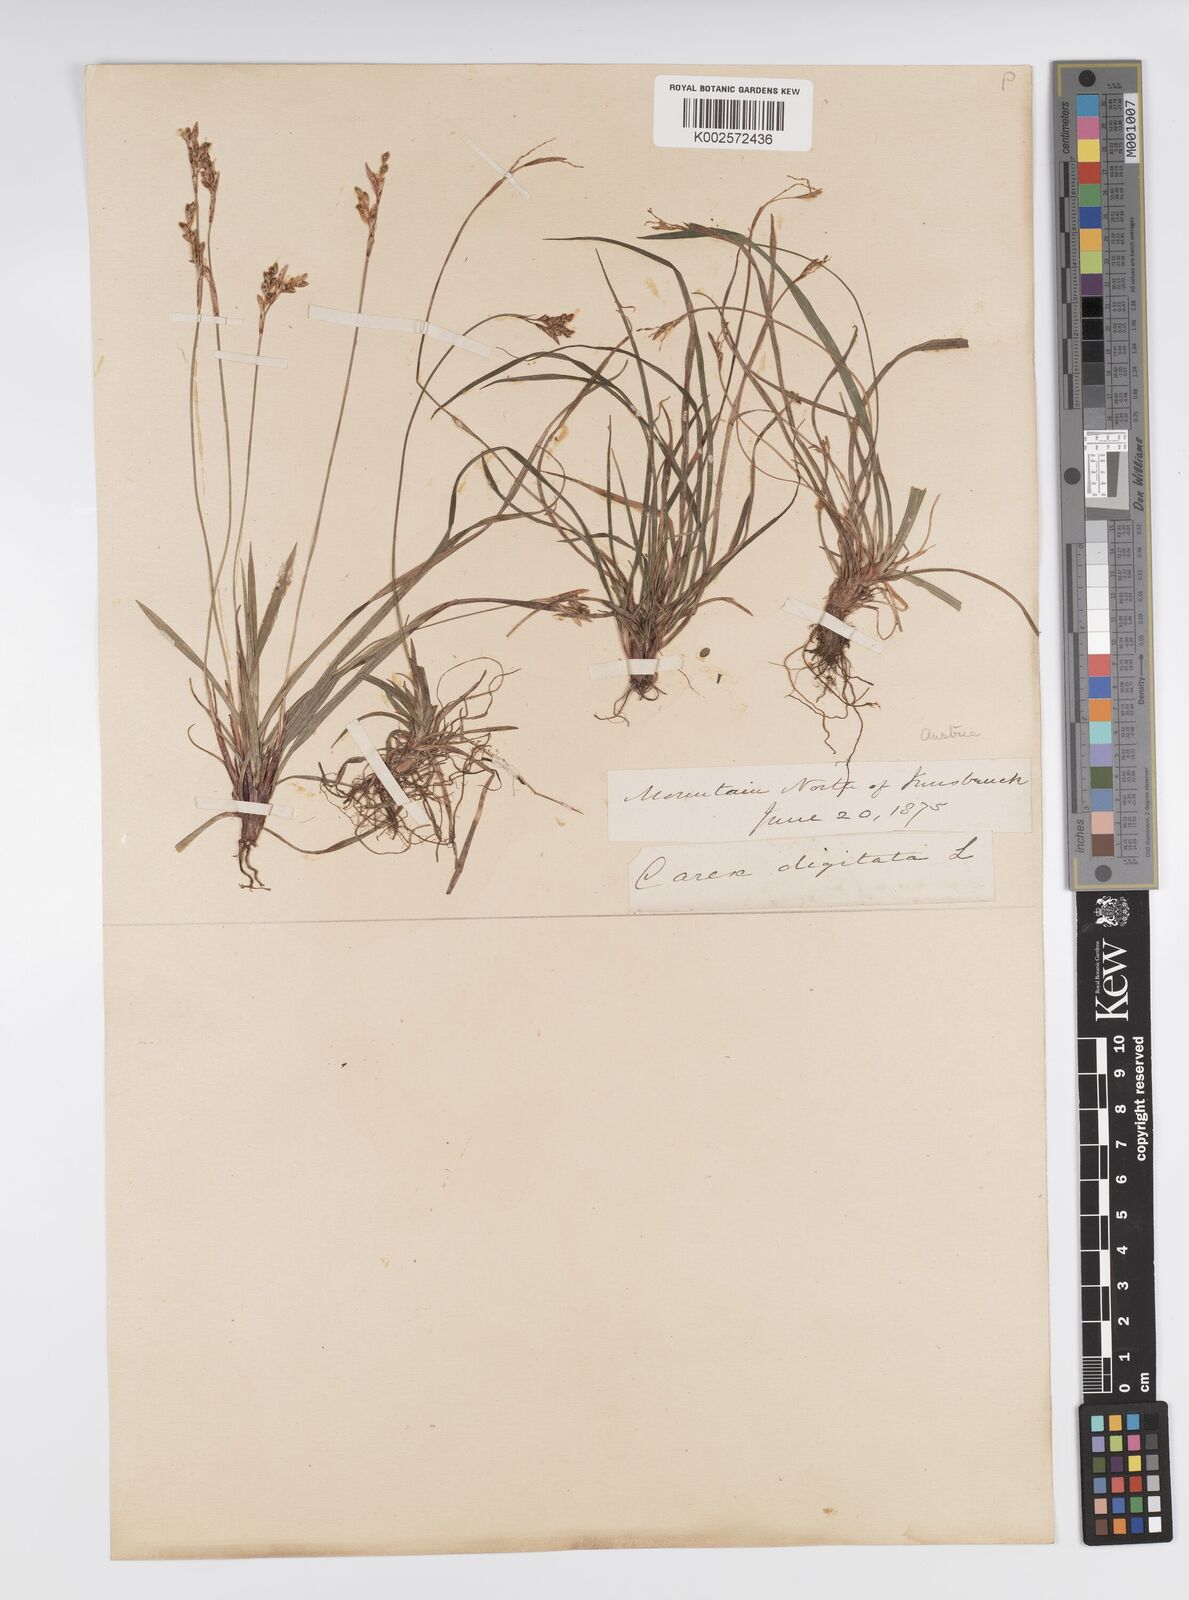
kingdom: Plantae
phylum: Tracheophyta
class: Liliopsida
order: Poales
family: Cyperaceae
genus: Carex
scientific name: Carex digitata
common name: Fingered sedge
